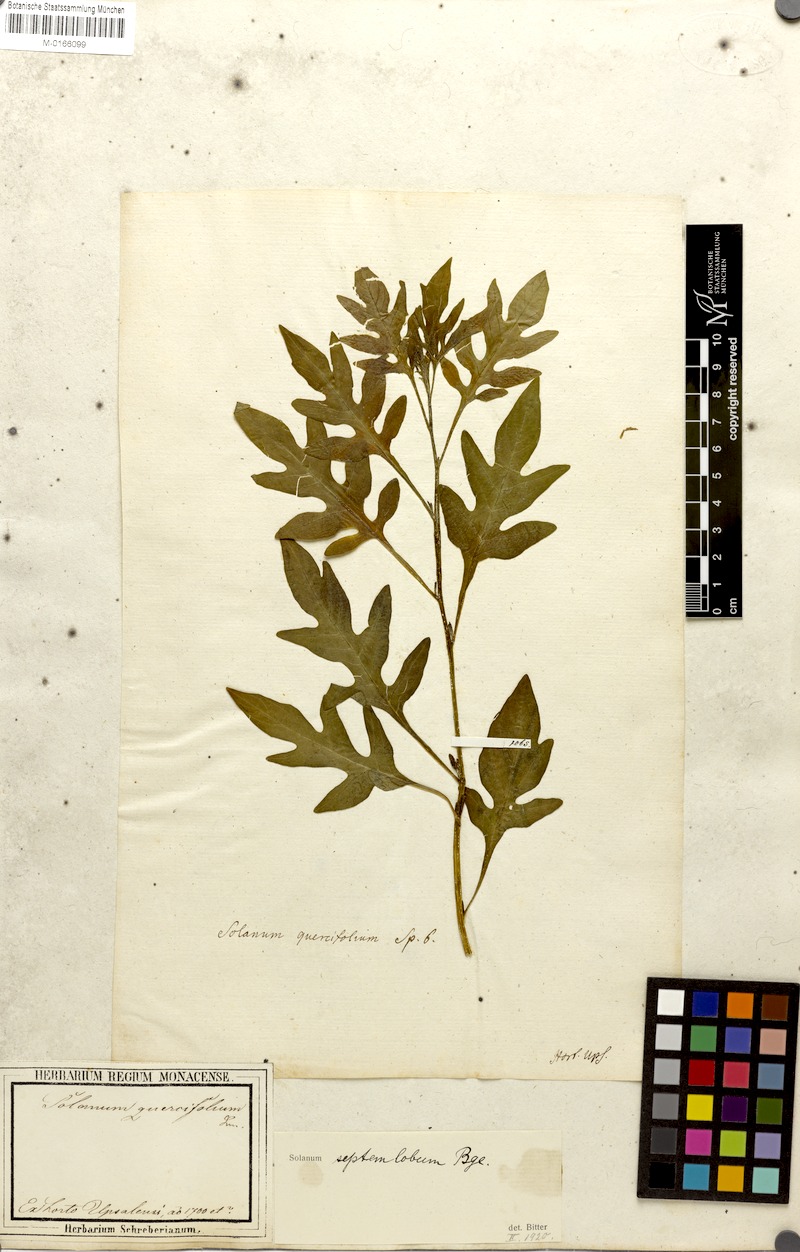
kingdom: Plantae
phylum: Tracheophyta
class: Magnoliopsida
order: Solanales
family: Solanaceae
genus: Solanum
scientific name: Solanum septemlobum
